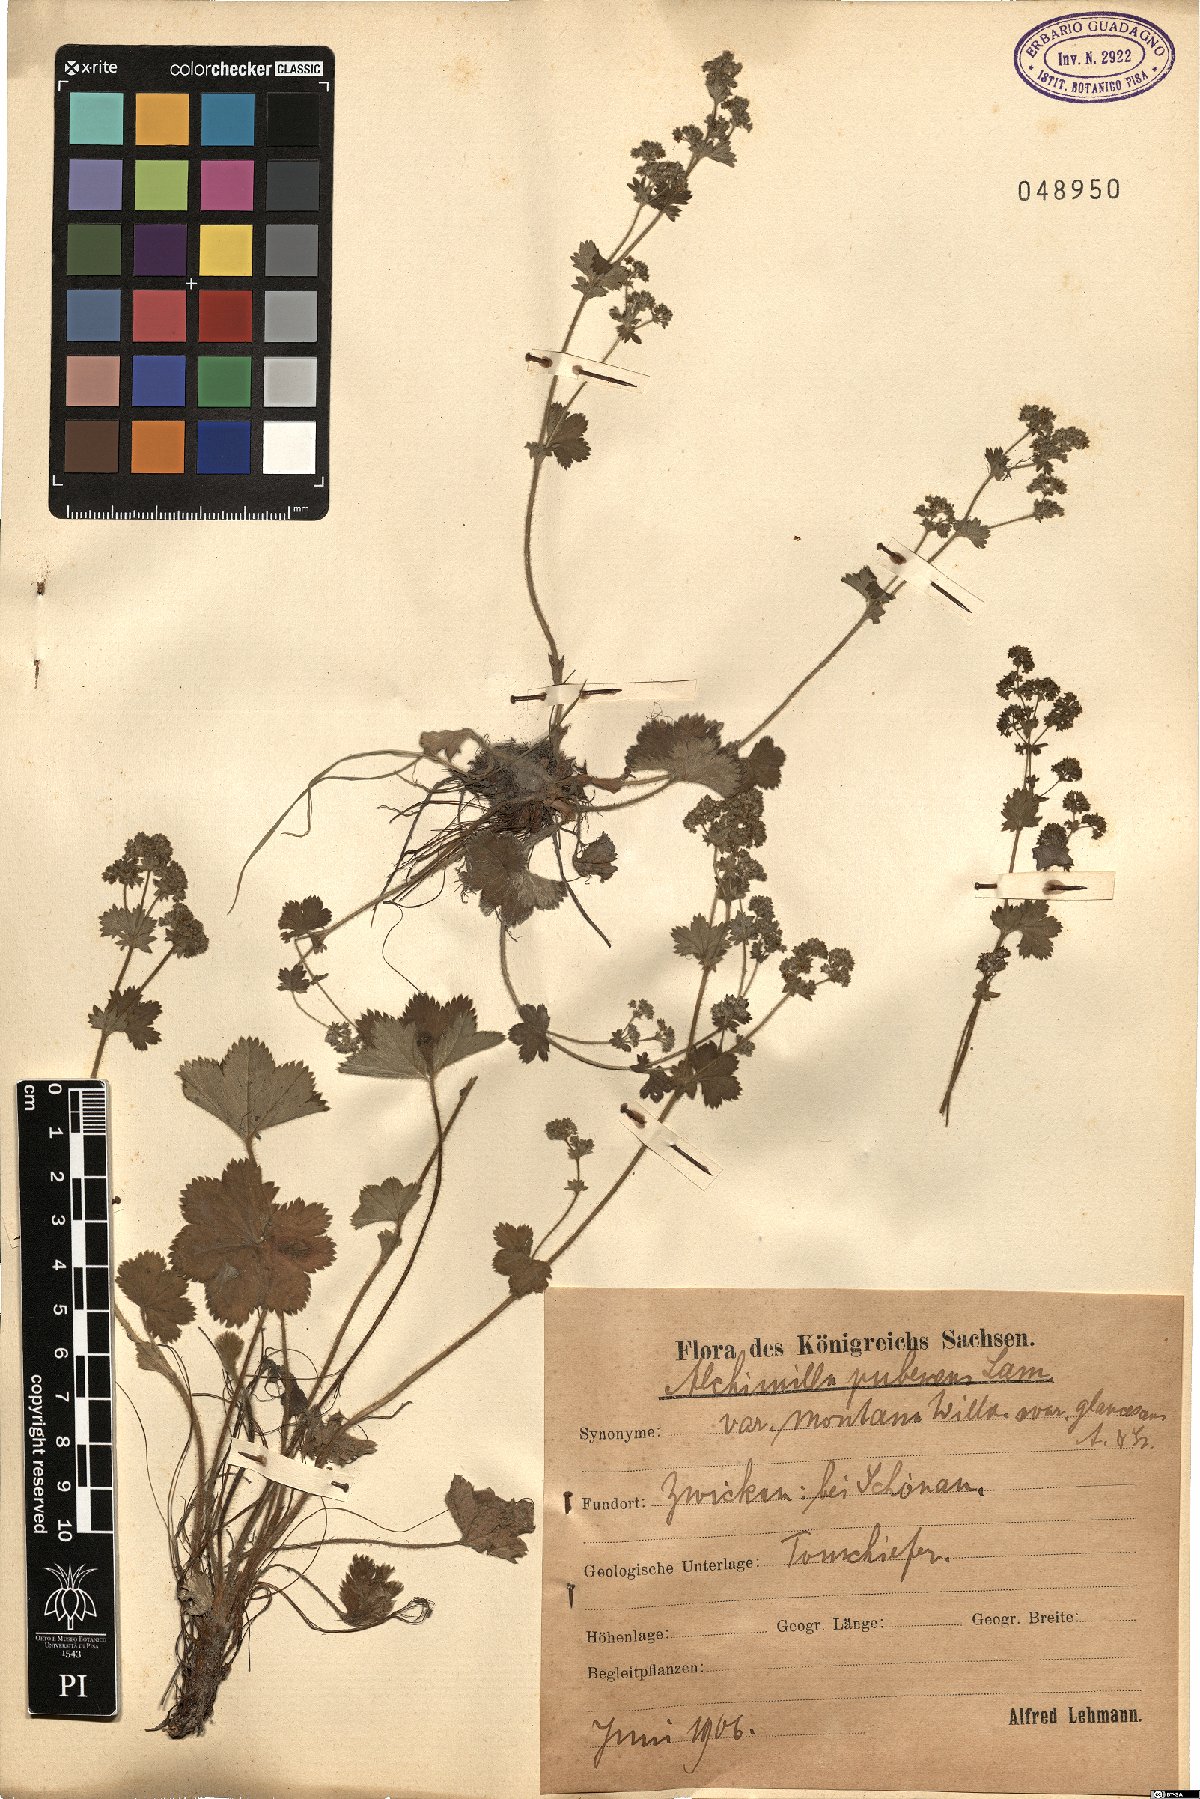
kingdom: Plantae
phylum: Tracheophyta
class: Magnoliopsida
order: Rosales
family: Rosaceae
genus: Alchemilla
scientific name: Alchemilla hybrida
